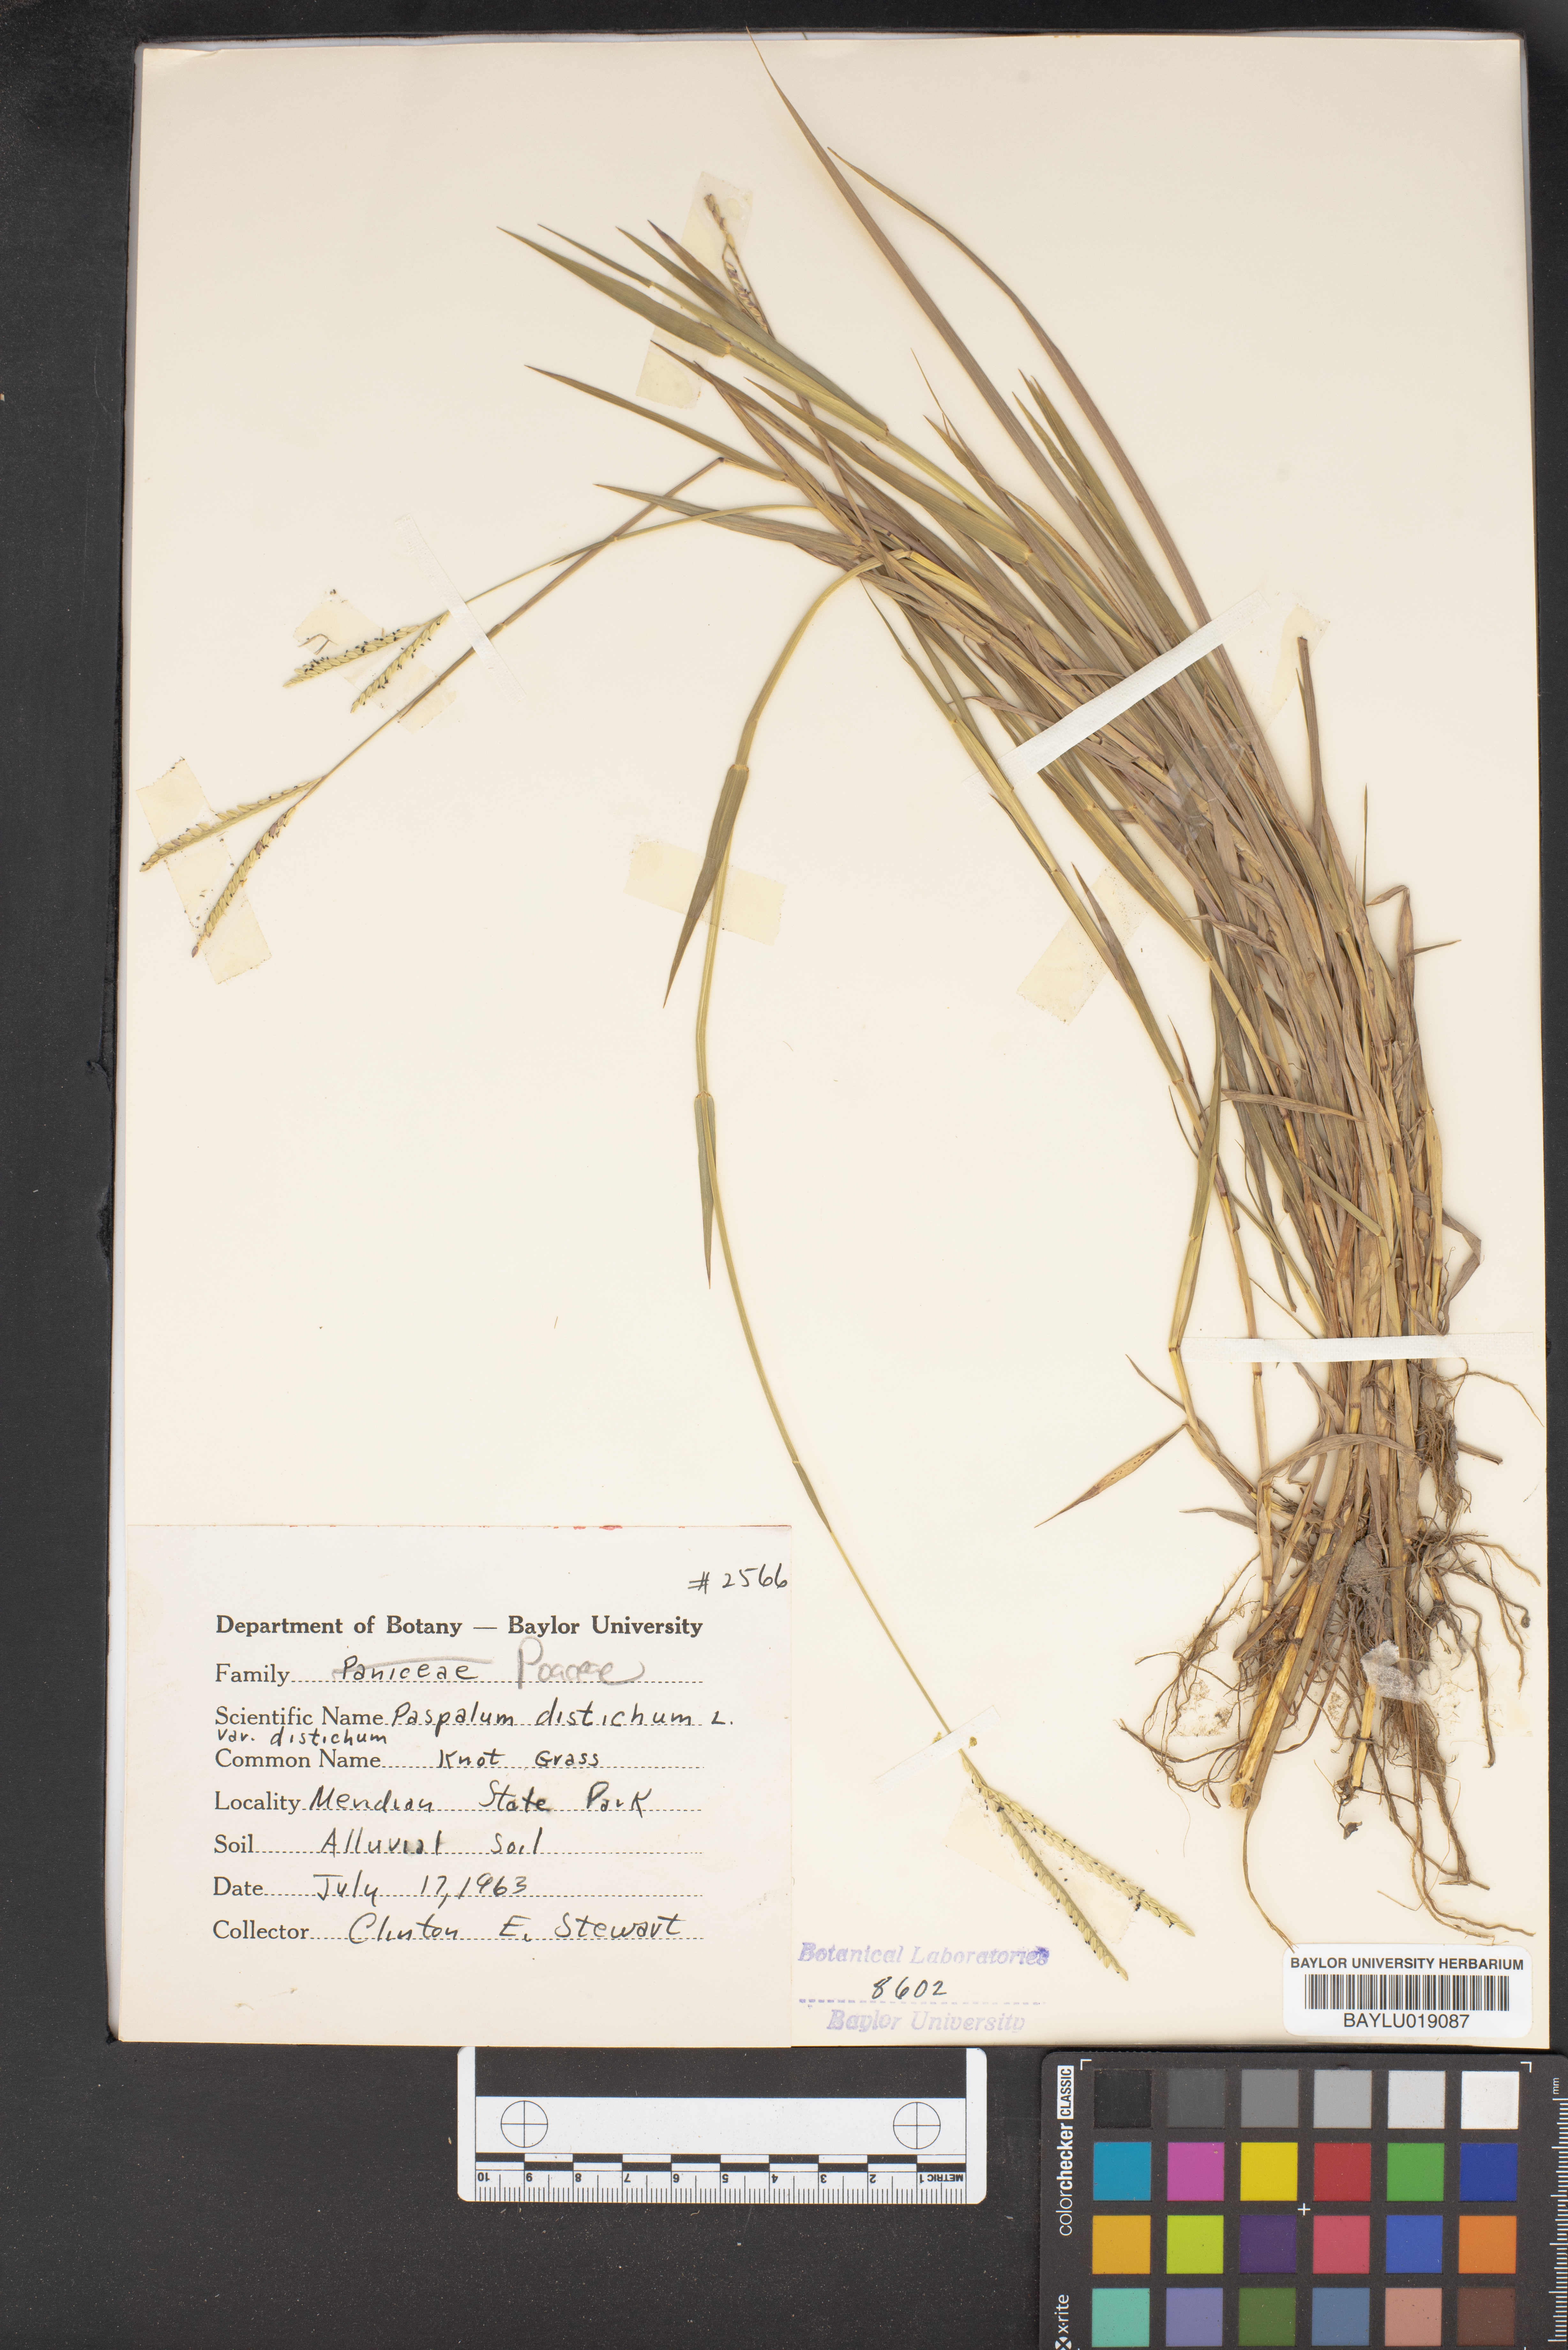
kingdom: Plantae
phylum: Tracheophyta
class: Liliopsida
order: Poales
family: Poaceae
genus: Paspalum
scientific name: Paspalum distichum
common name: Knotgrass
